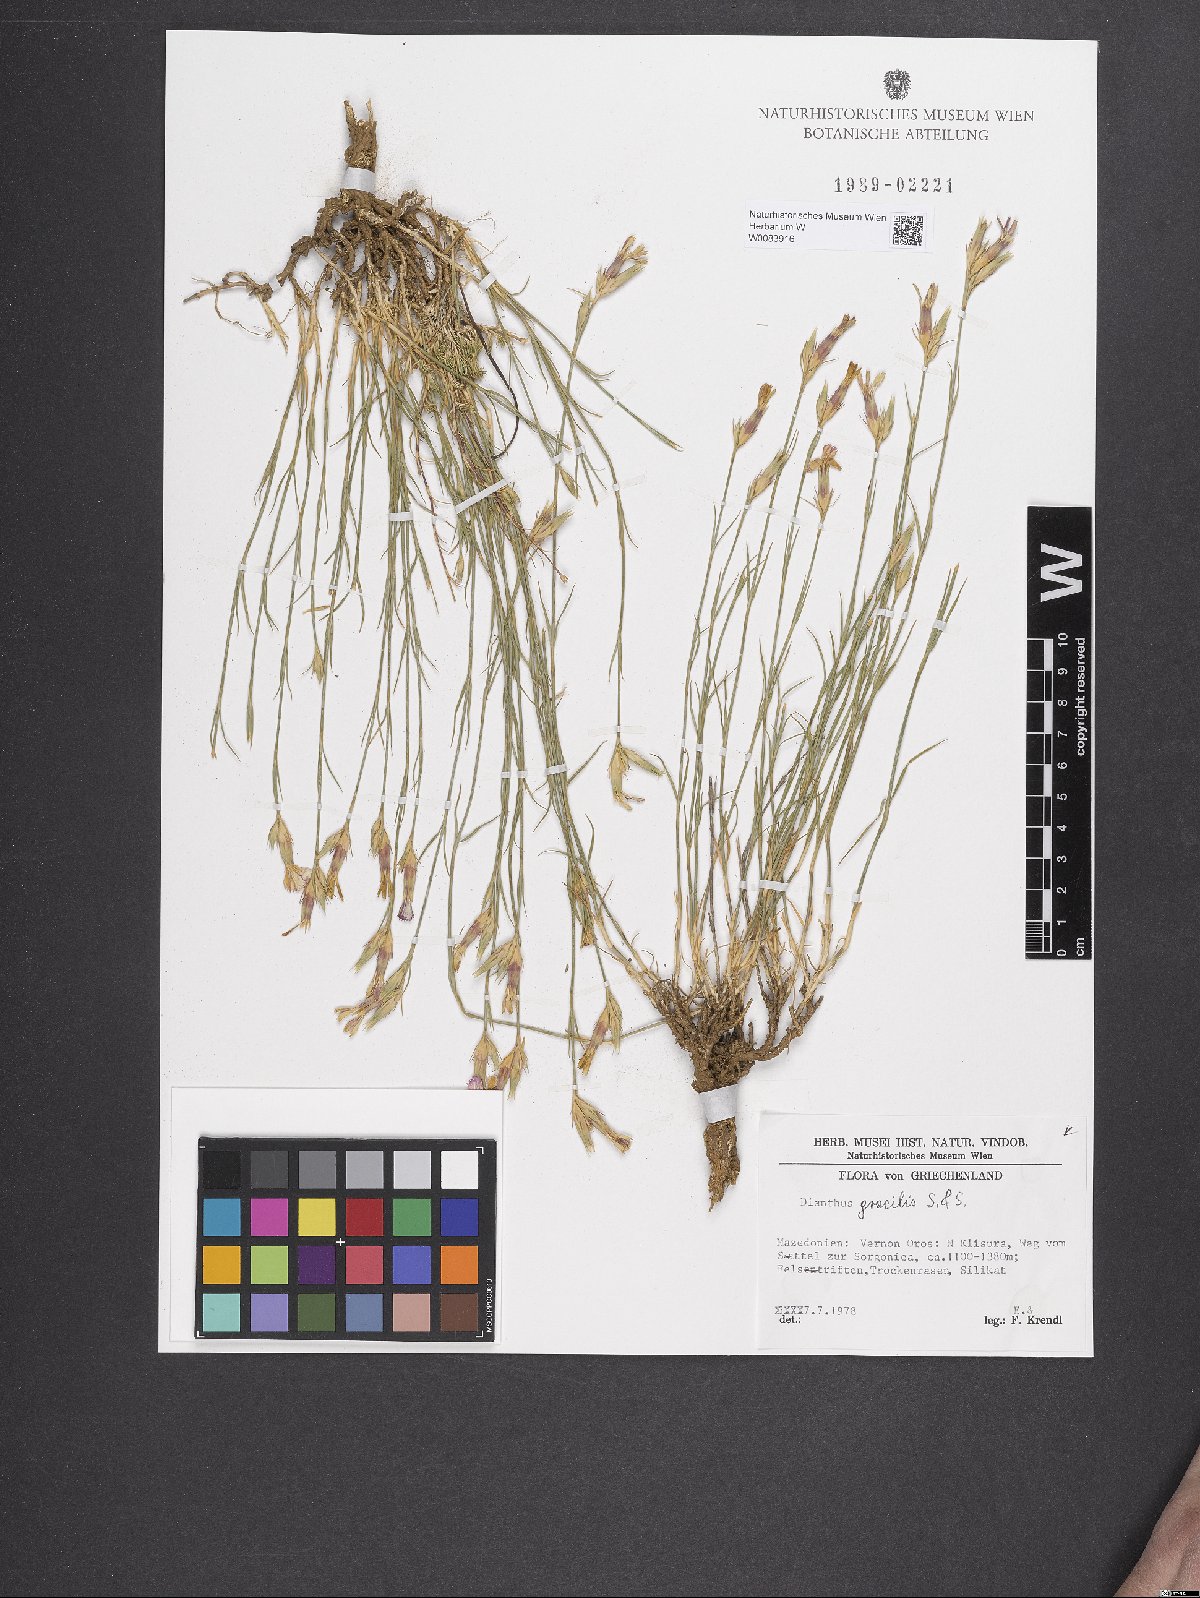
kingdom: Plantae
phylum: Tracheophyta
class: Magnoliopsida
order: Caryophyllales
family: Caryophyllaceae
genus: Dianthus
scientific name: Dianthus gracilis
